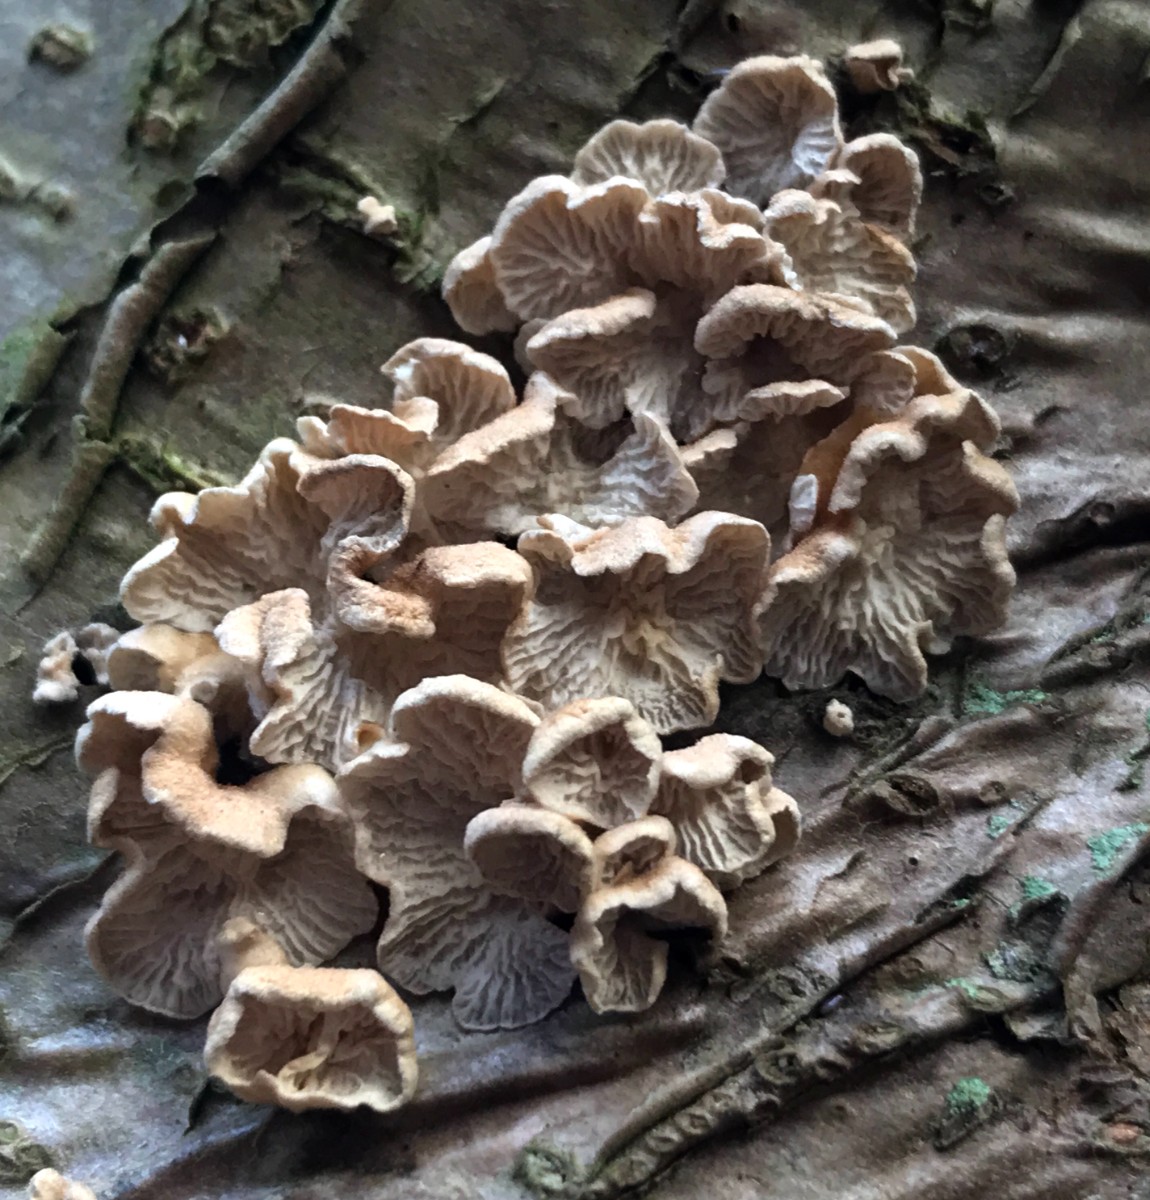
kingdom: Fungi
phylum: Basidiomycota
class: Agaricomycetes
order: Amylocorticiales
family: Amylocorticiaceae
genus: Plicaturopsis
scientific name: Plicaturopsis crispa
